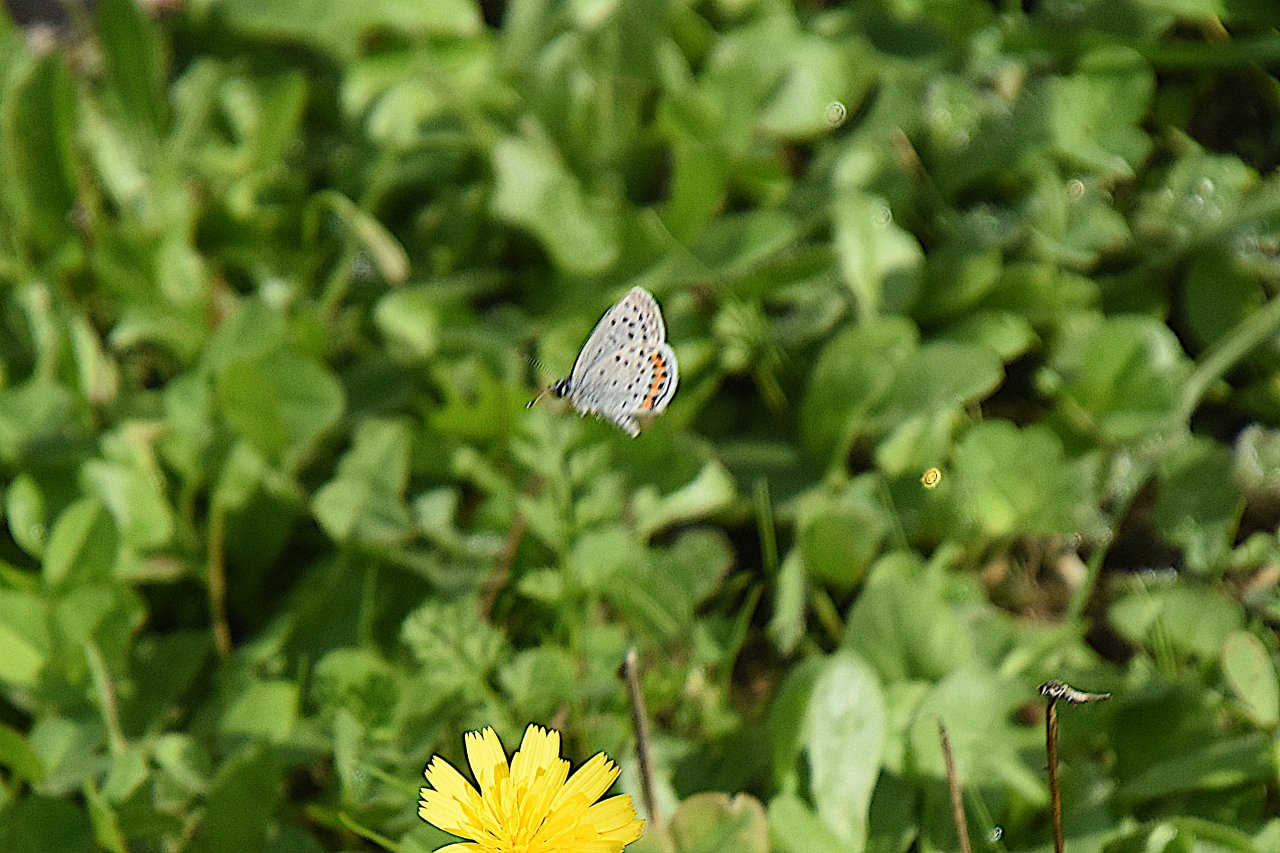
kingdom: Animalia
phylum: Arthropoda
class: Insecta
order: Lepidoptera
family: Lycaenidae
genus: Plebejus
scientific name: Plebejus acmon
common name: Acmon Blue
